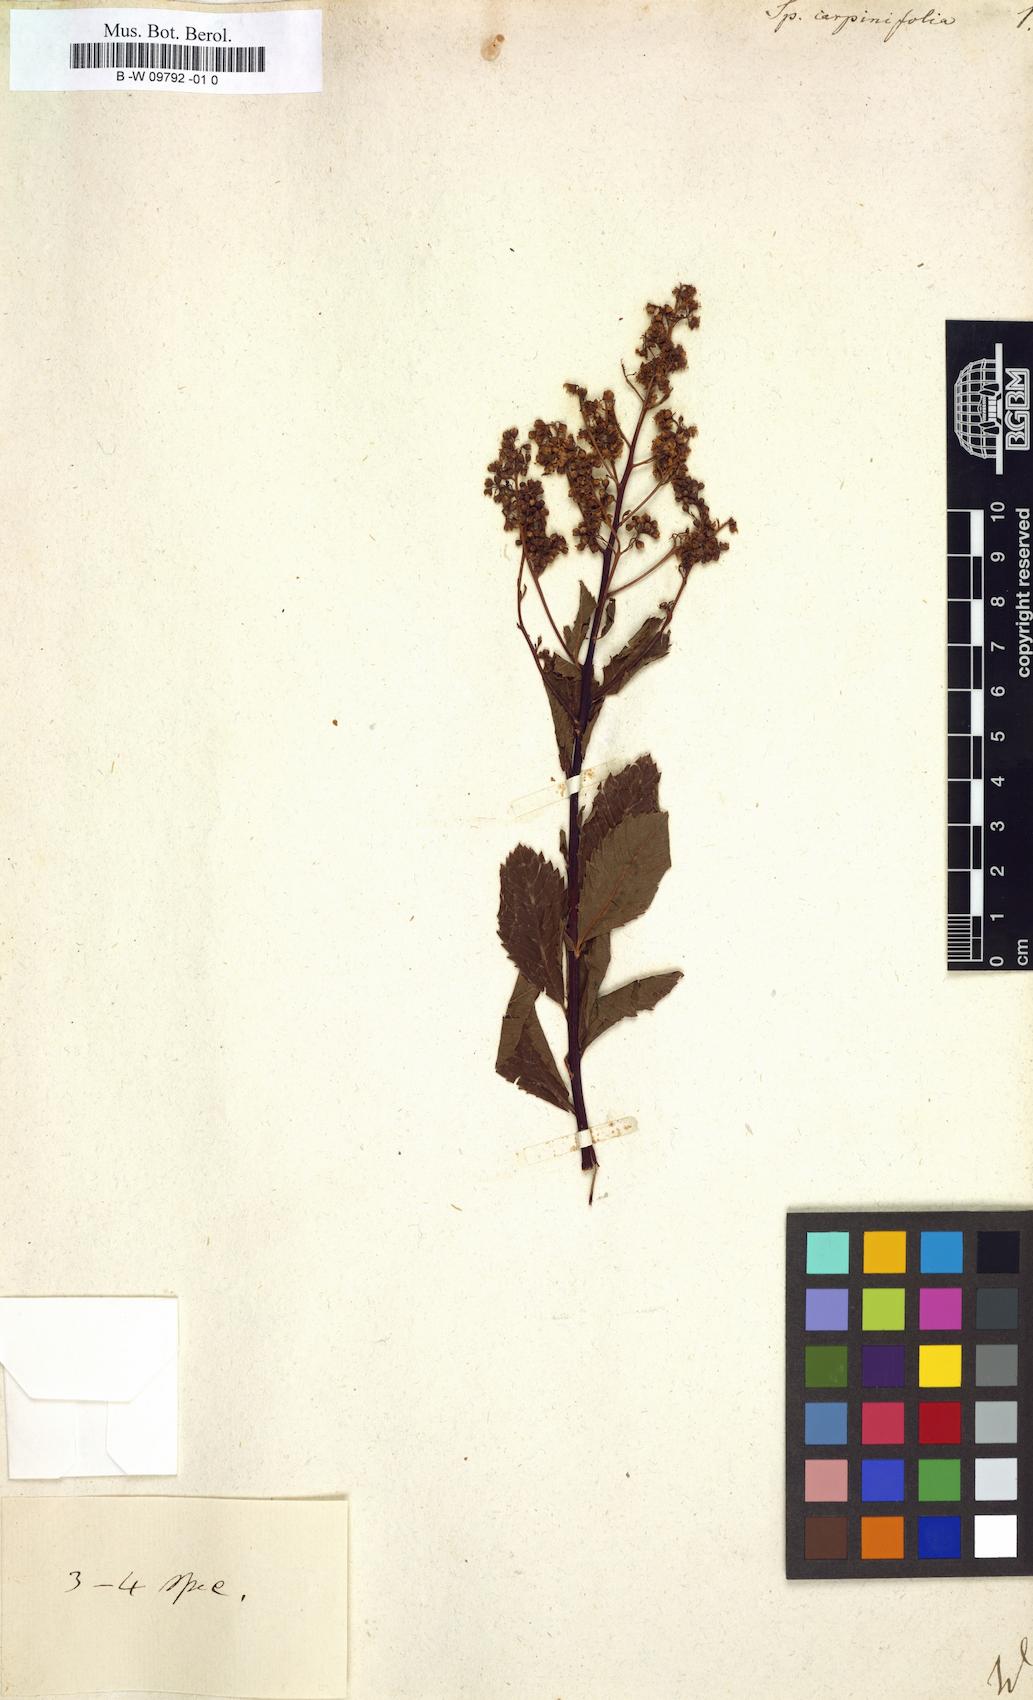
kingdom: Plantae
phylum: Tracheophyta
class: Magnoliopsida
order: Rosales
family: Rosaceae
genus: Spiraea
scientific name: Spiraea
